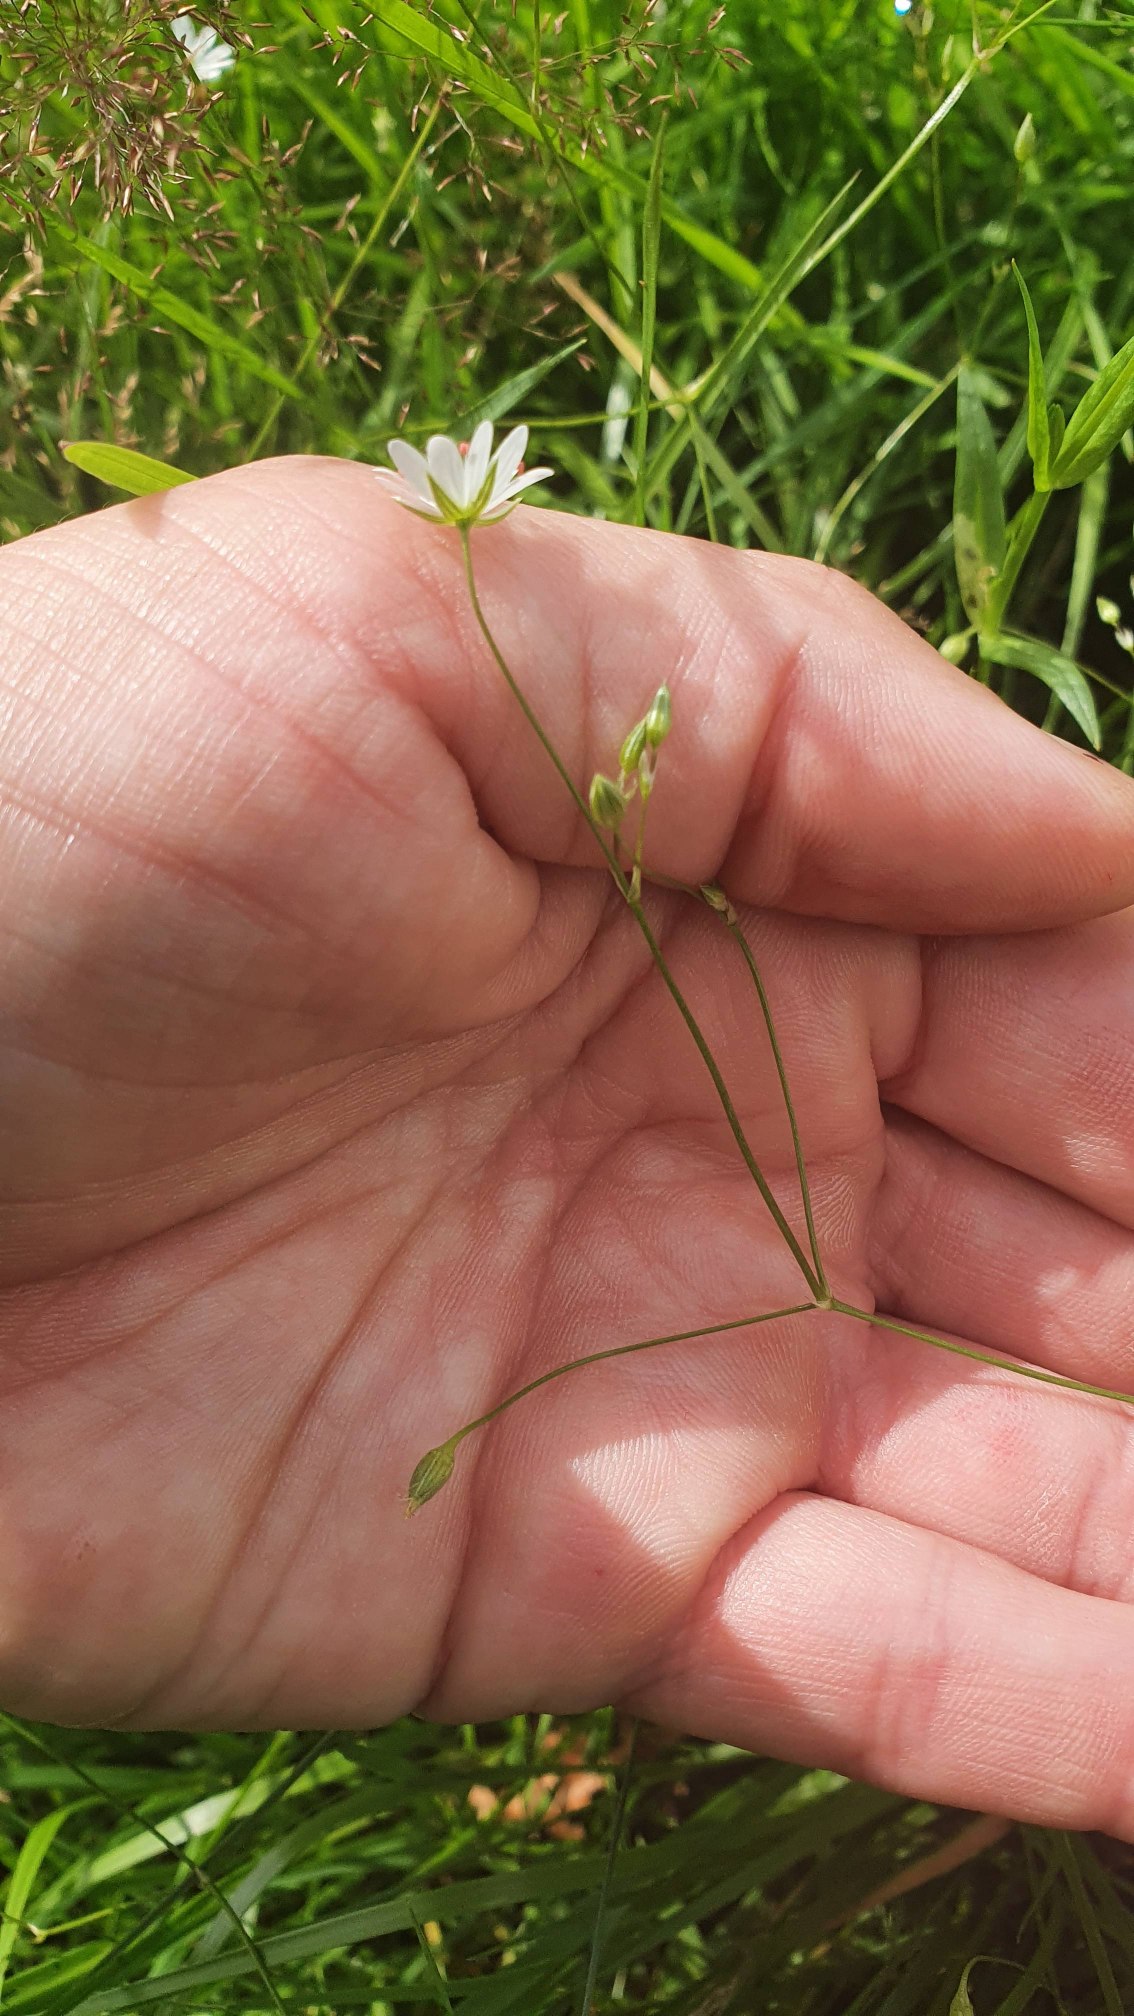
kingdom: Plantae
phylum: Tracheophyta
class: Magnoliopsida
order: Caryophyllales
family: Caryophyllaceae
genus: Stellaria
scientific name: Stellaria graminea
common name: Græsbladet fladstjerne
